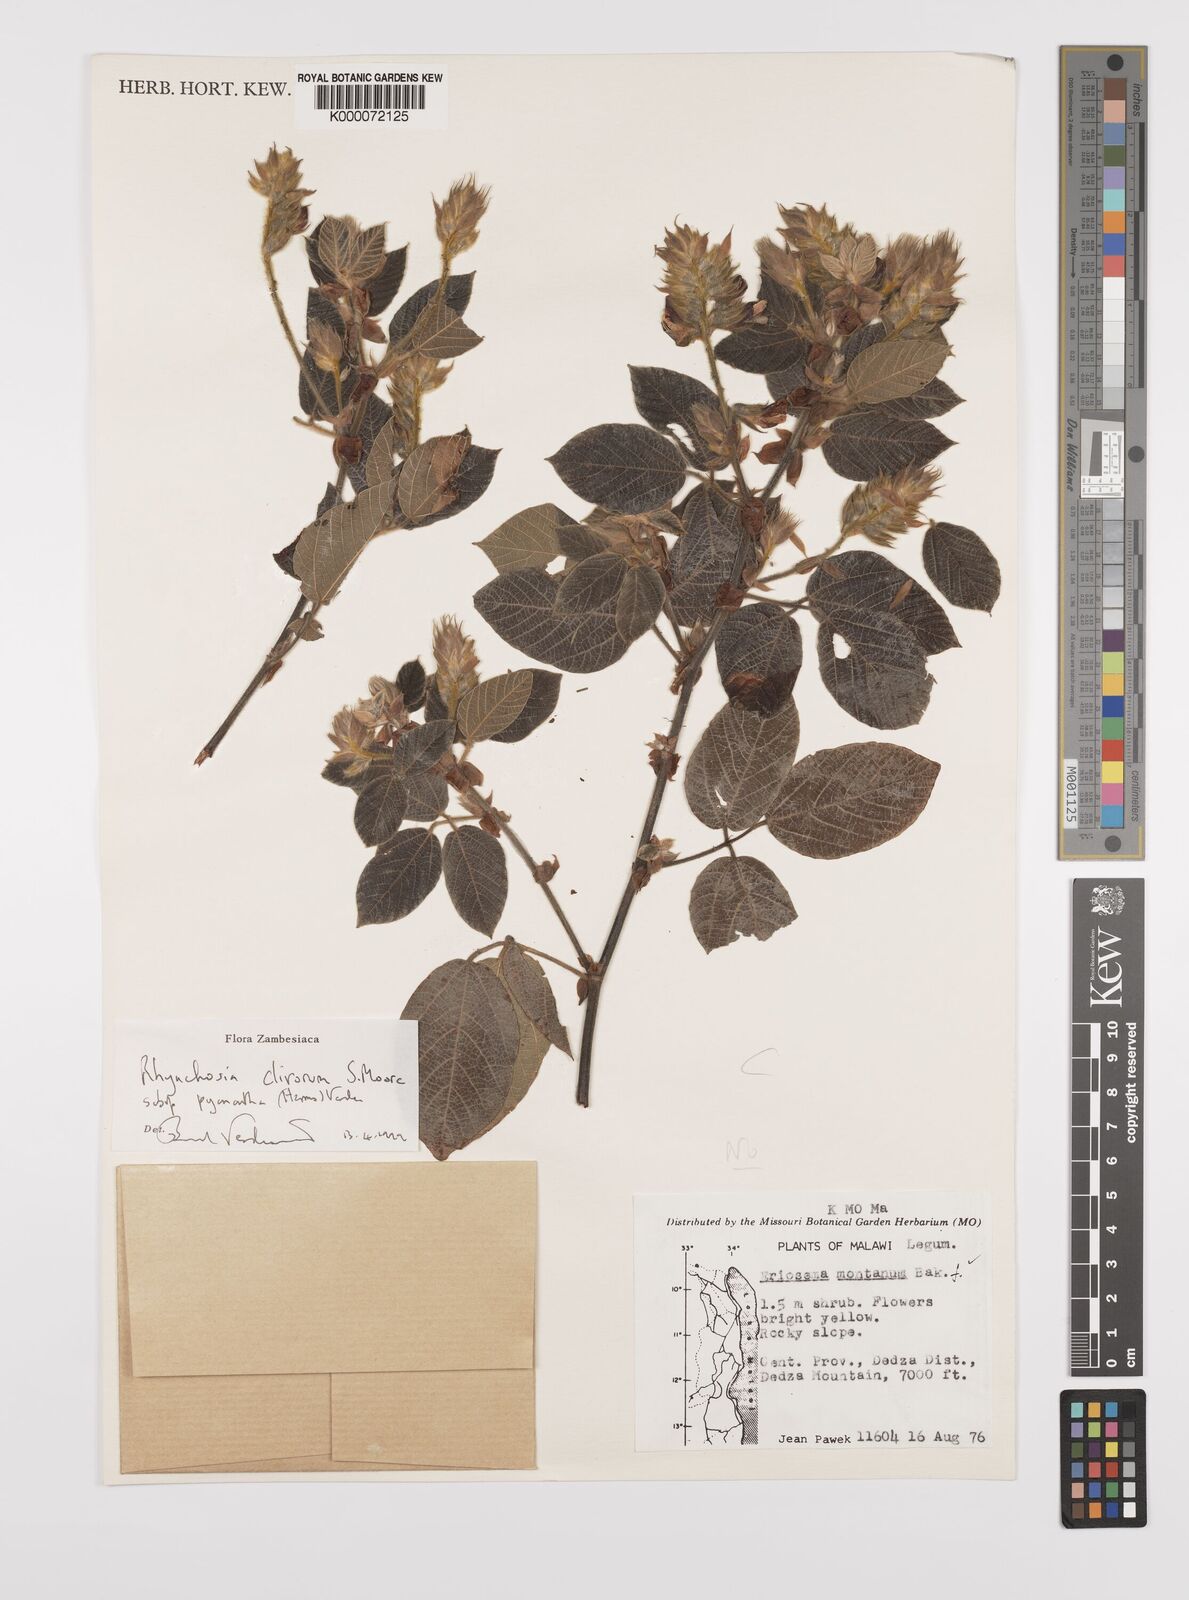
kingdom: Plantae
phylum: Tracheophyta
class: Magnoliopsida
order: Fabales
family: Fabaceae
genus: Rhynchosia
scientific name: Rhynchosia clivorum
